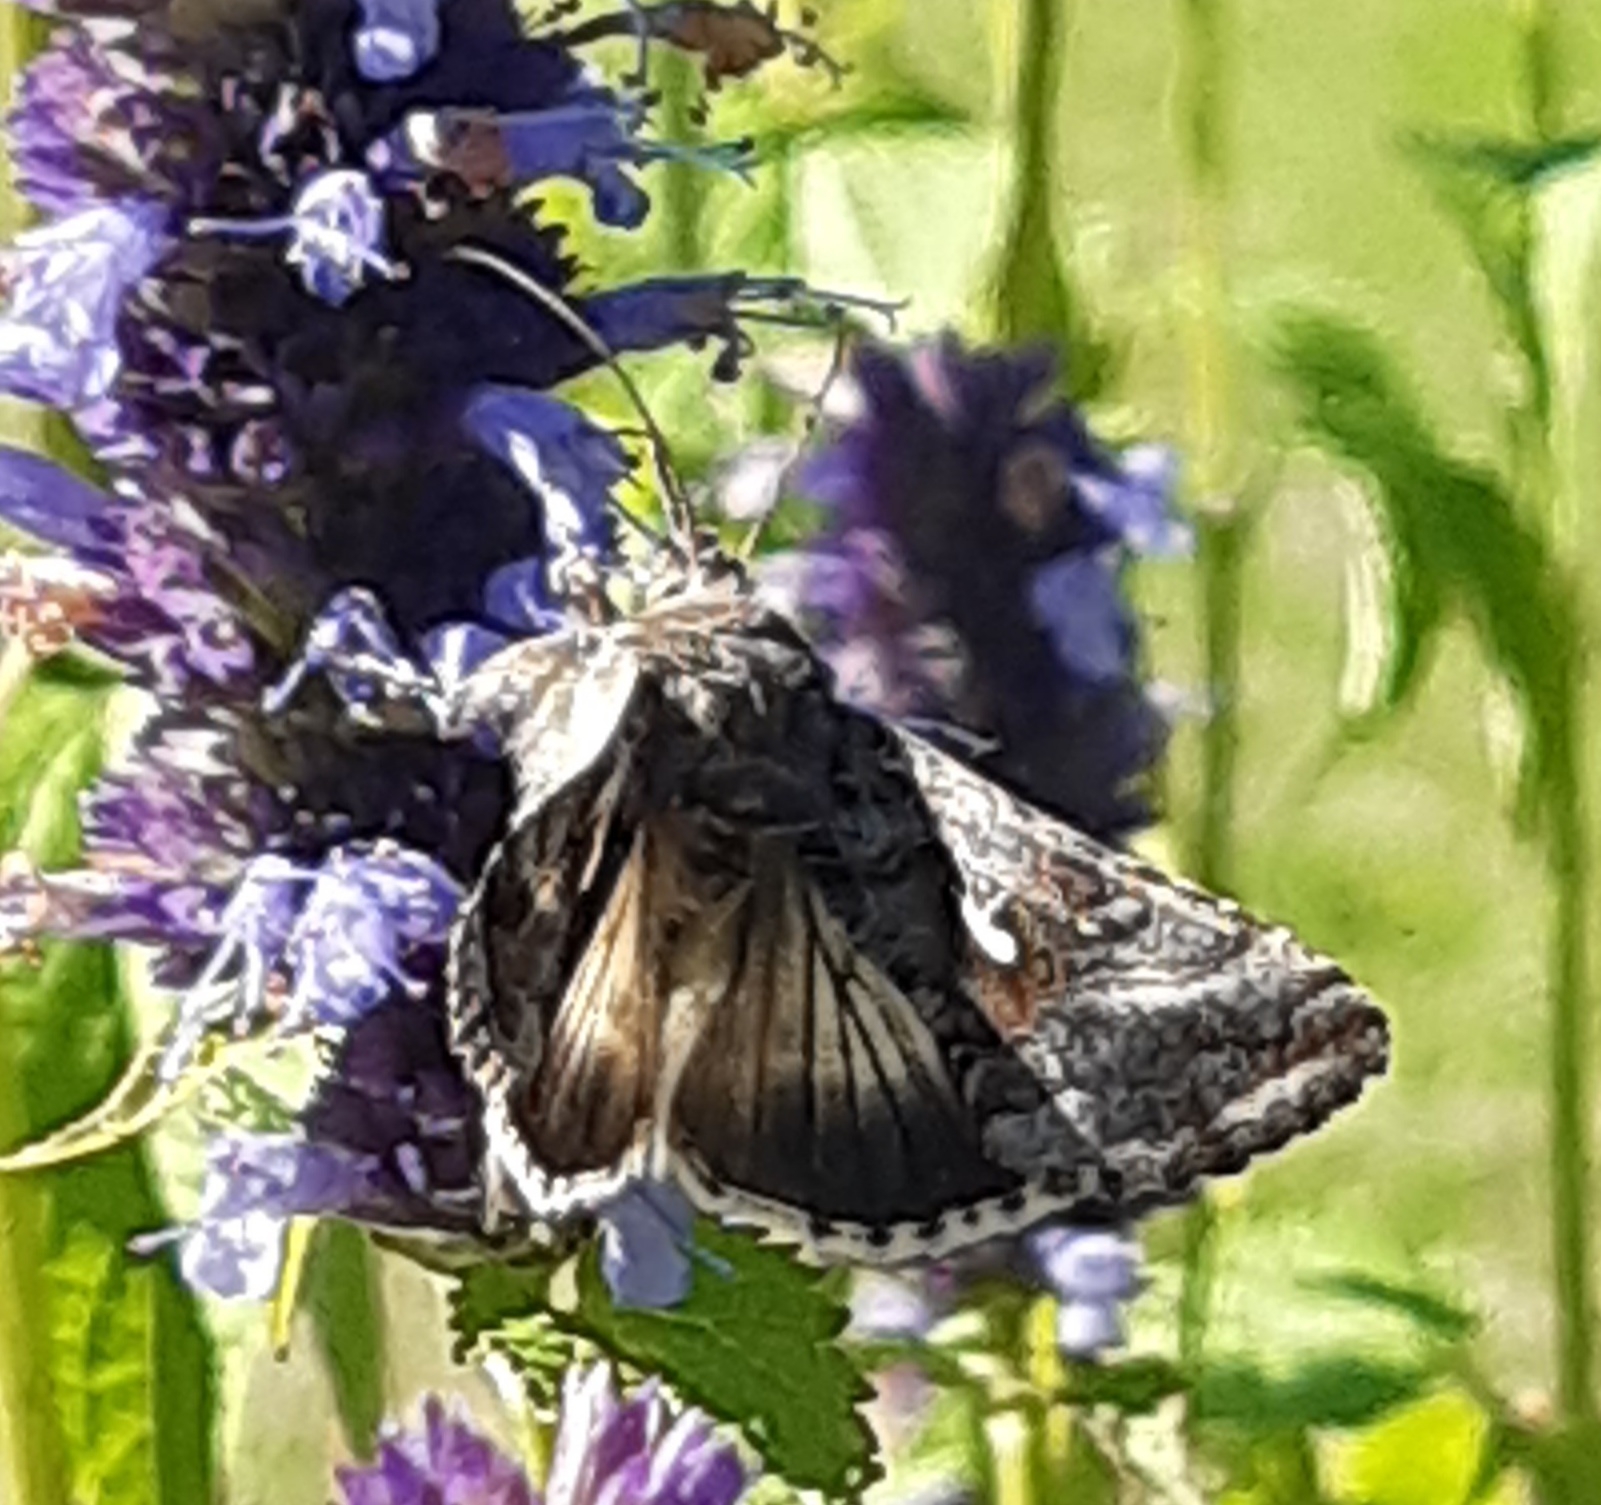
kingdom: Animalia
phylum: Arthropoda
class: Insecta
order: Lepidoptera
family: Noctuidae
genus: Autographa
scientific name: Autographa gamma
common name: Gammaugle
